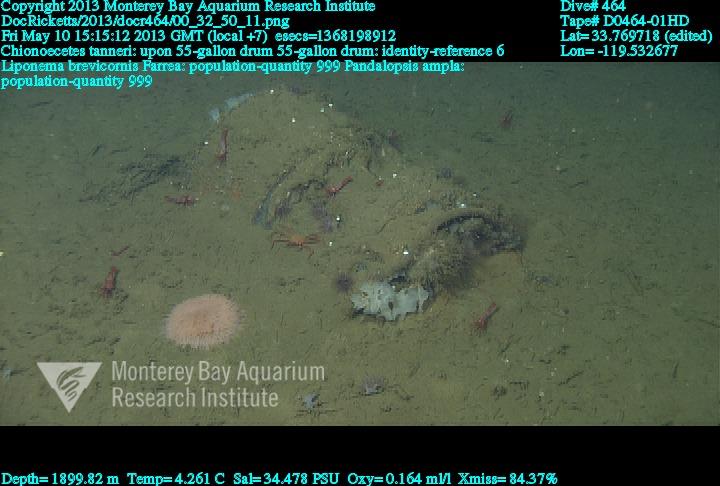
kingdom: Animalia
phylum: Porifera
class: Hexactinellida
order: Sceptrulophora
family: Farreidae
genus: Farrea
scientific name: Farrea
